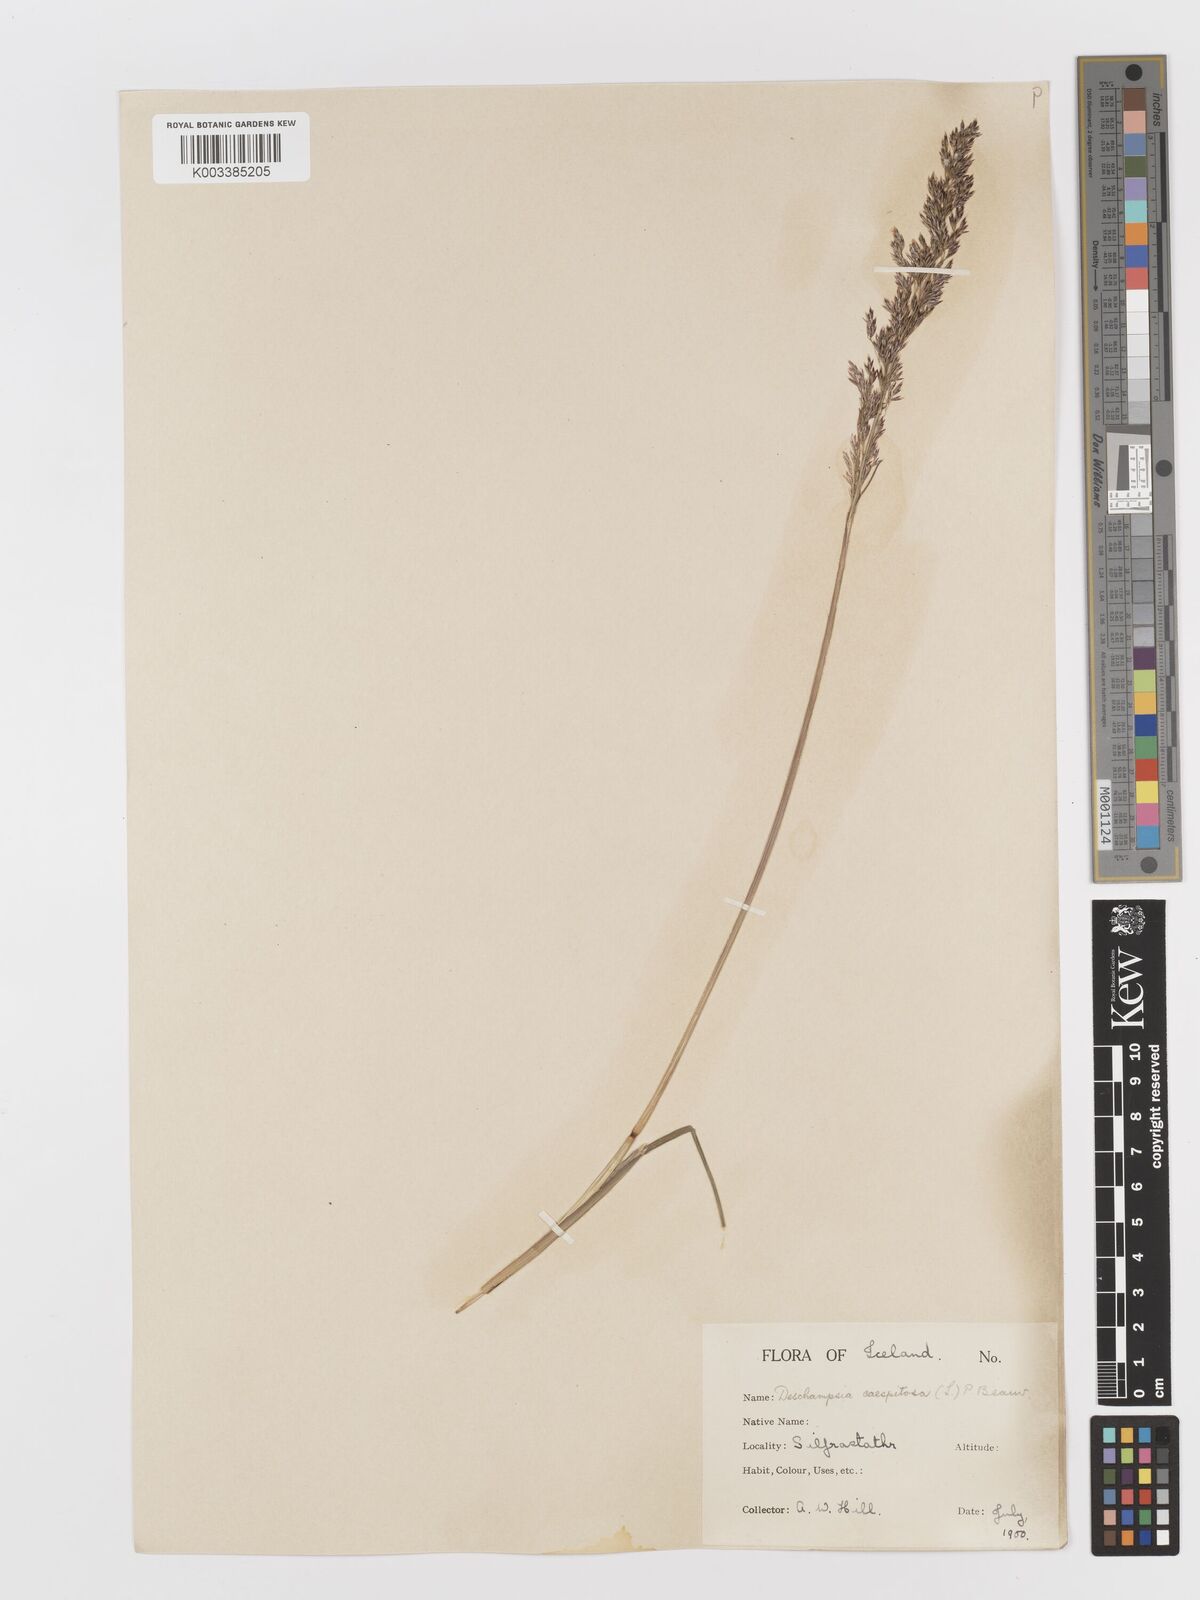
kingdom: Plantae
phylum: Tracheophyta
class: Liliopsida
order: Poales
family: Poaceae
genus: Deschampsia
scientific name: Deschampsia cespitosa
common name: Tufted hair-grass
